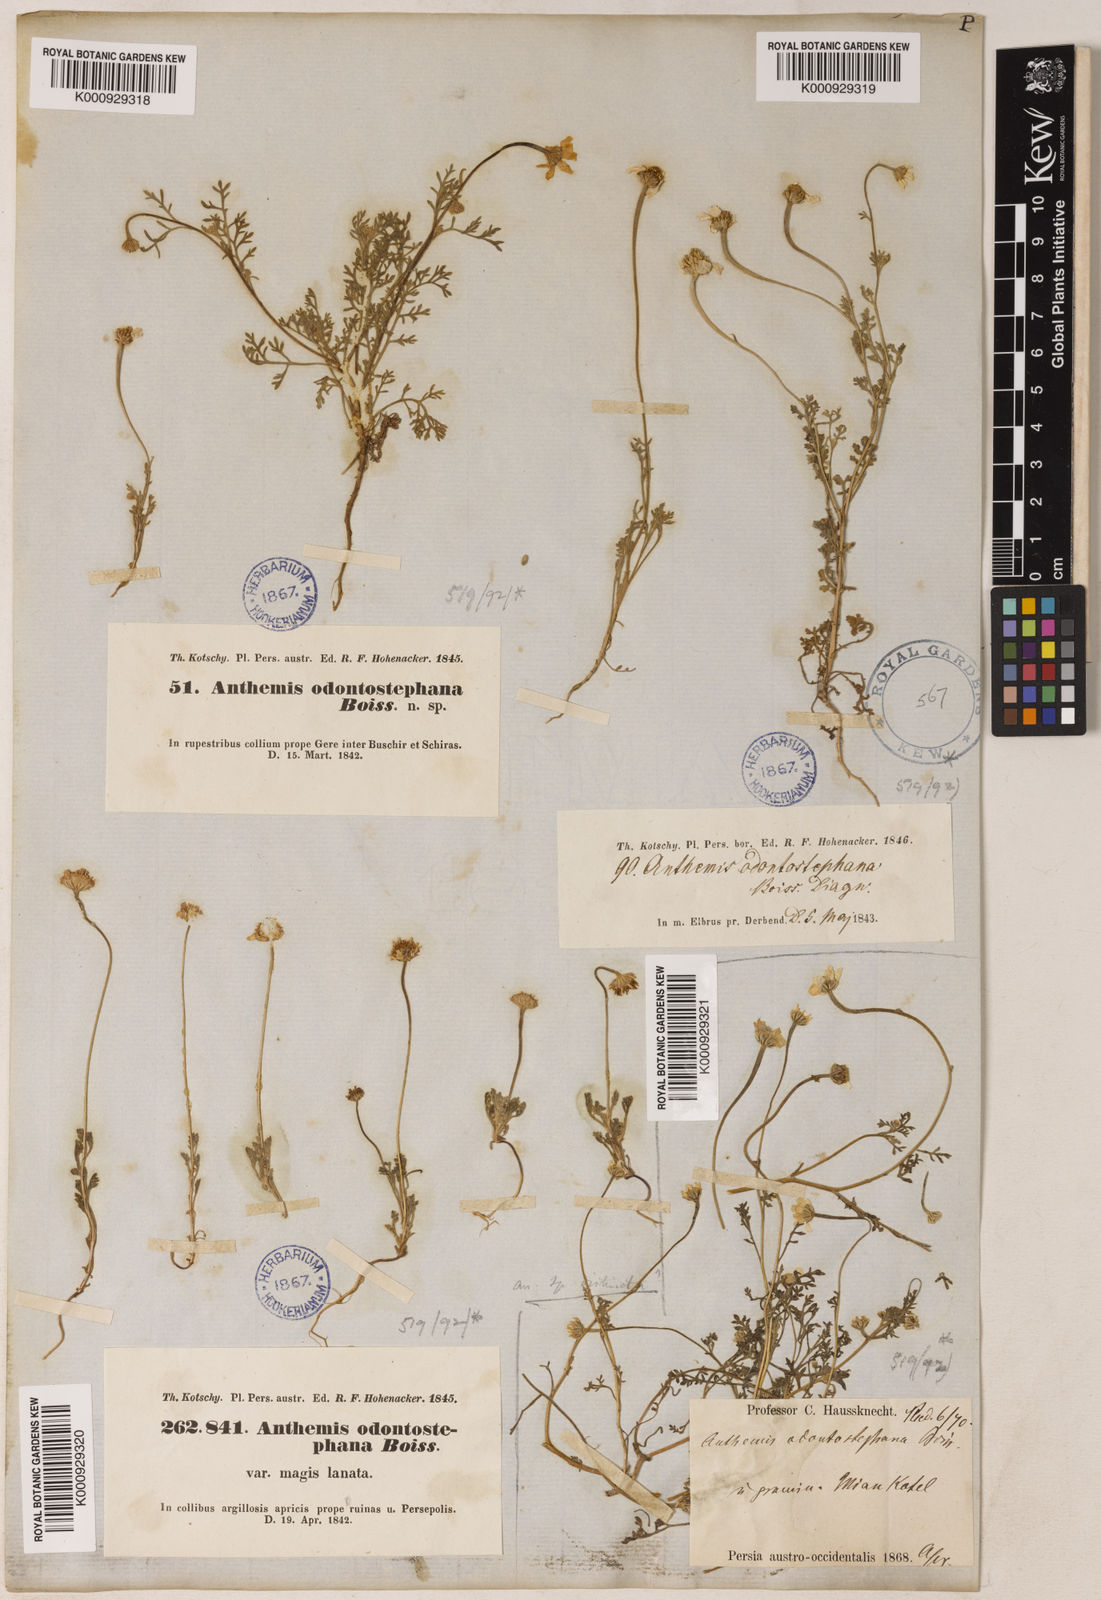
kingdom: Plantae
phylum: Tracheophyta
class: Magnoliopsida
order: Asterales
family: Asteraceae
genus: Anthemis
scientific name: Anthemis odontostephana
